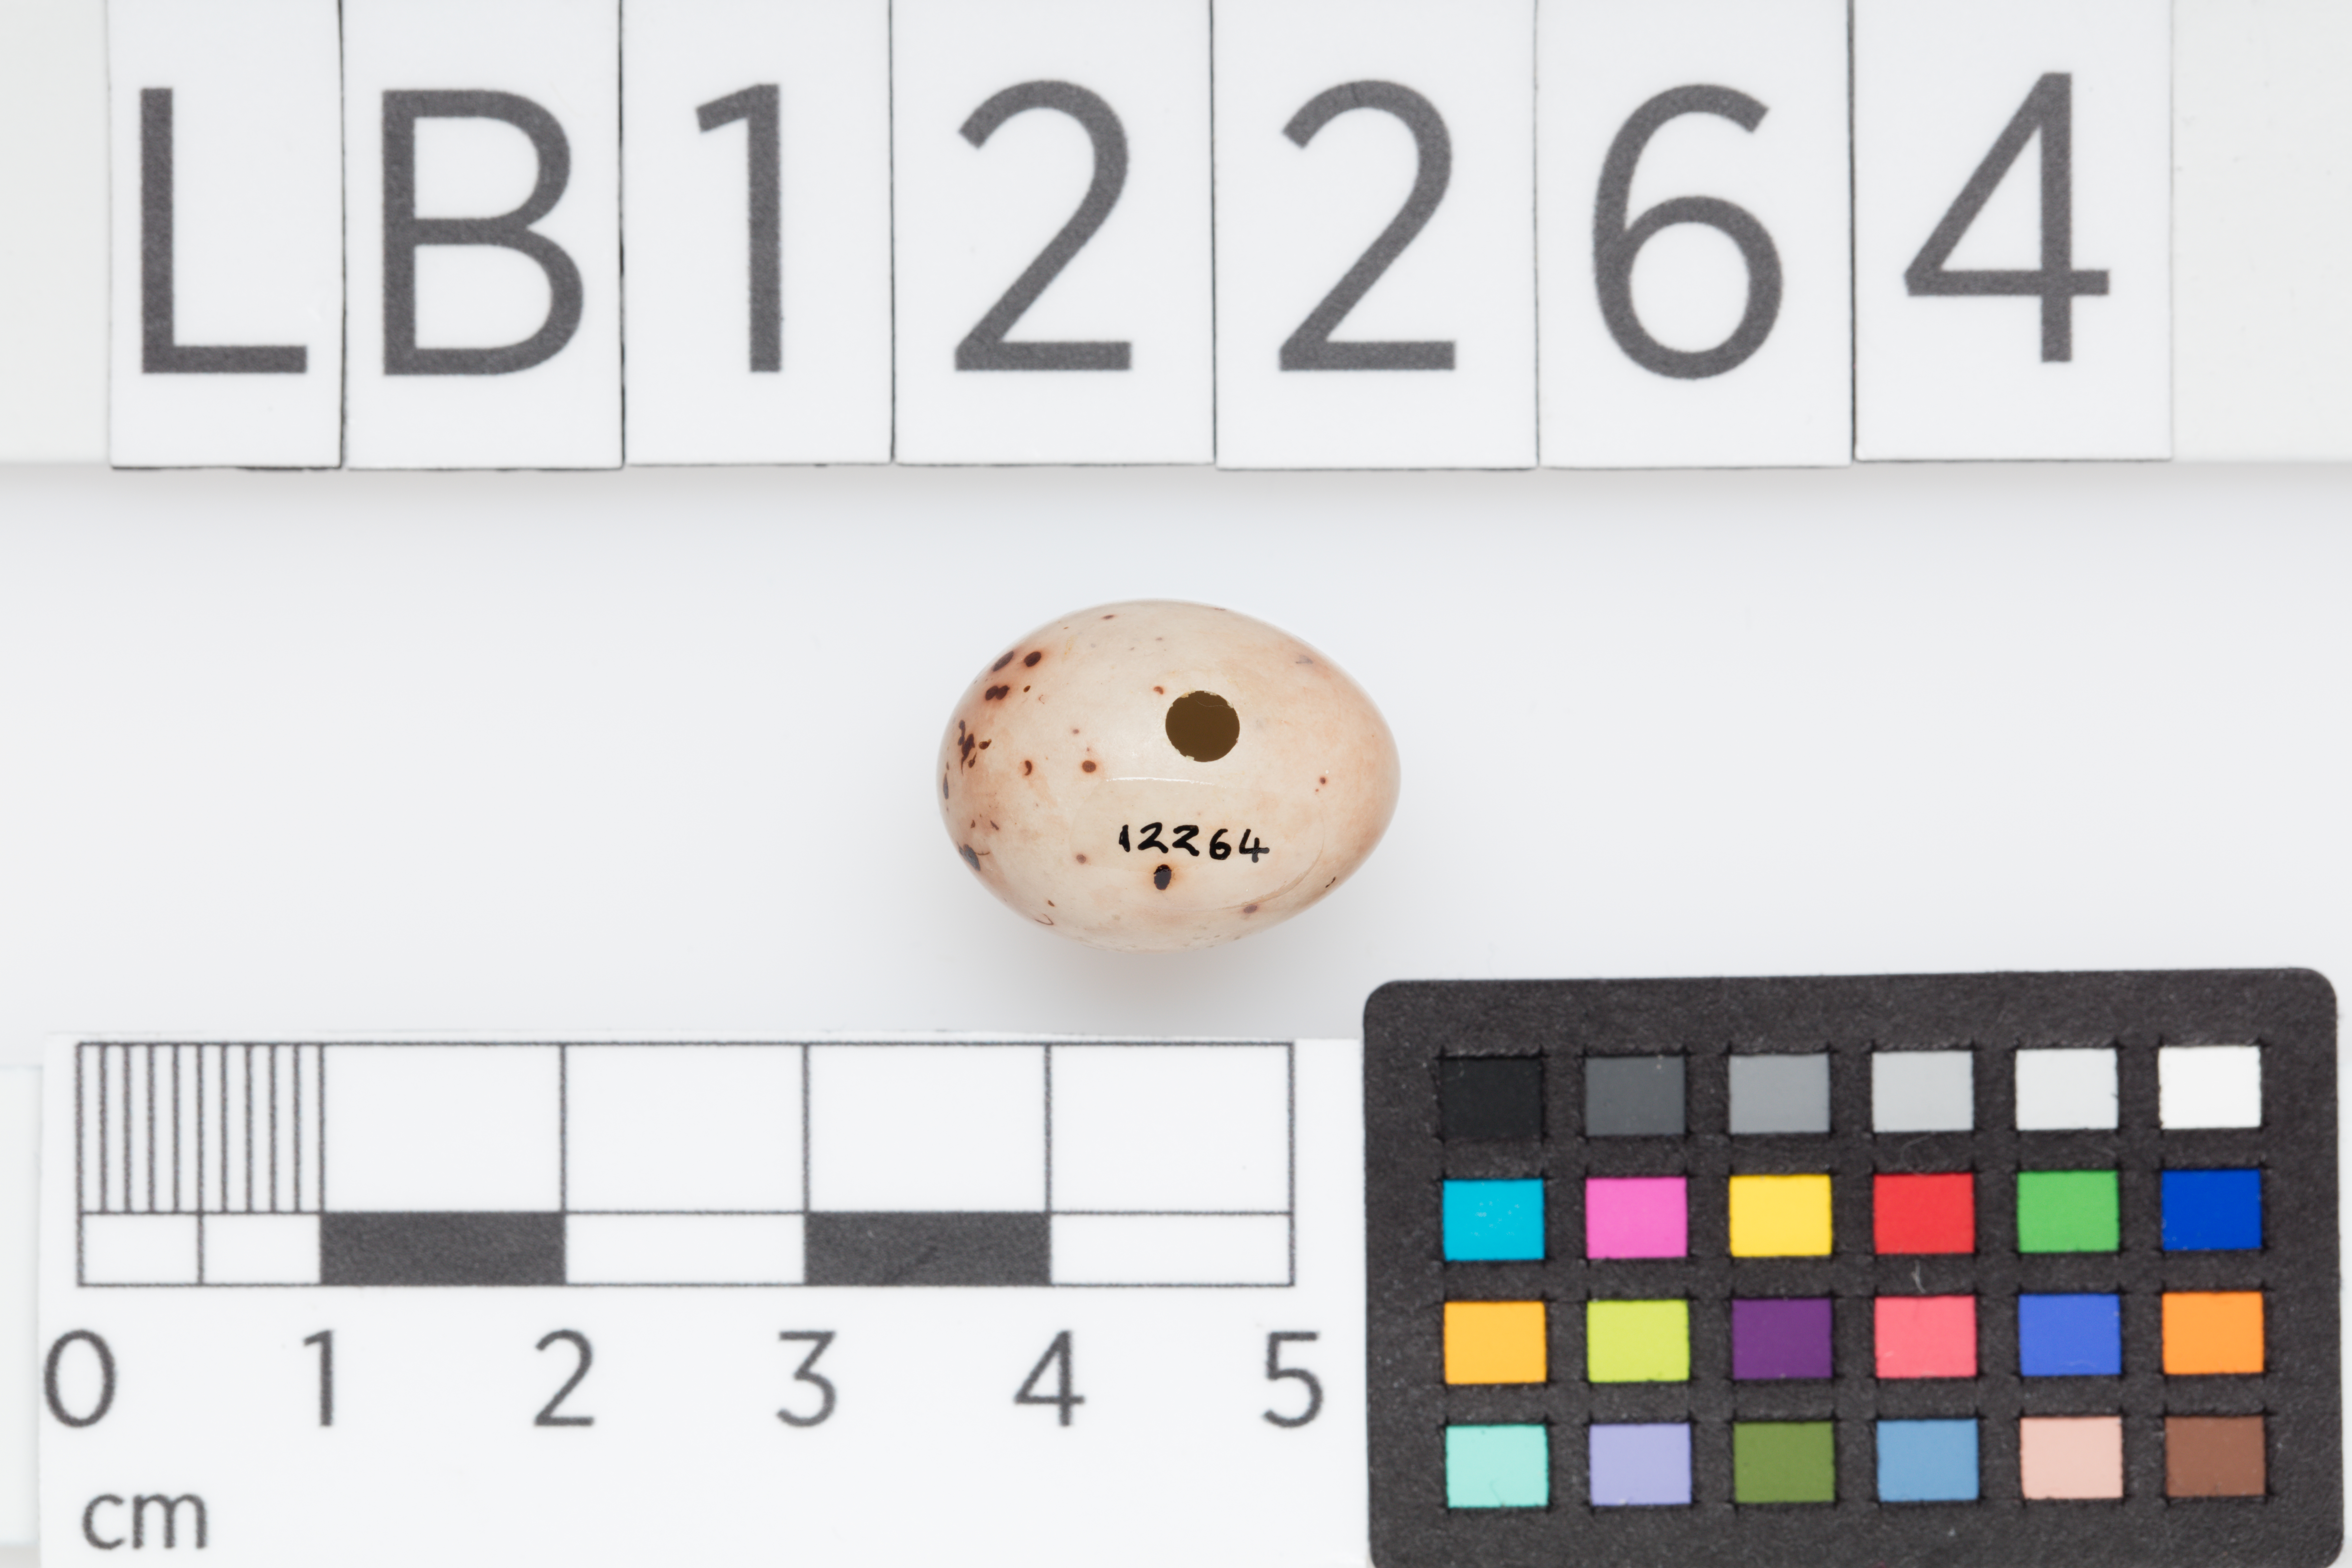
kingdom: Animalia
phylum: Chordata
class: Aves
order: Passeriformes
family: Fringillidae
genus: Fringilla
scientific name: Fringilla coelebs
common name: Common chaffinch
